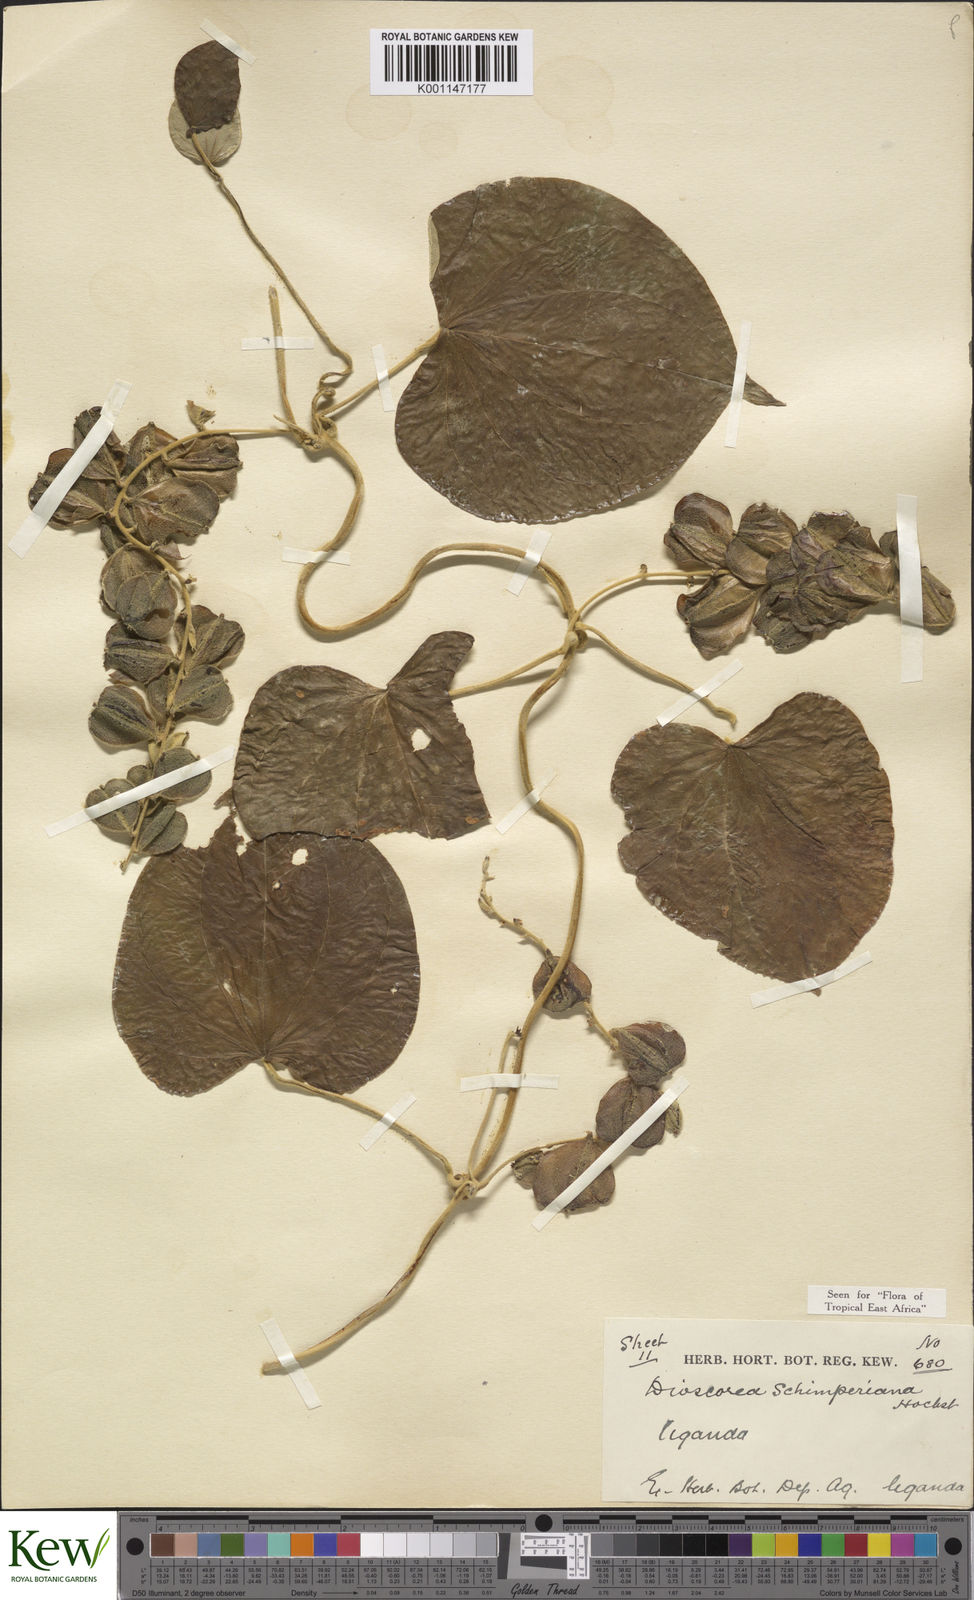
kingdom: Plantae
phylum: Tracheophyta
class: Liliopsida
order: Dioscoreales
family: Dioscoreaceae
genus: Dioscorea
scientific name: Dioscorea schimperiana
